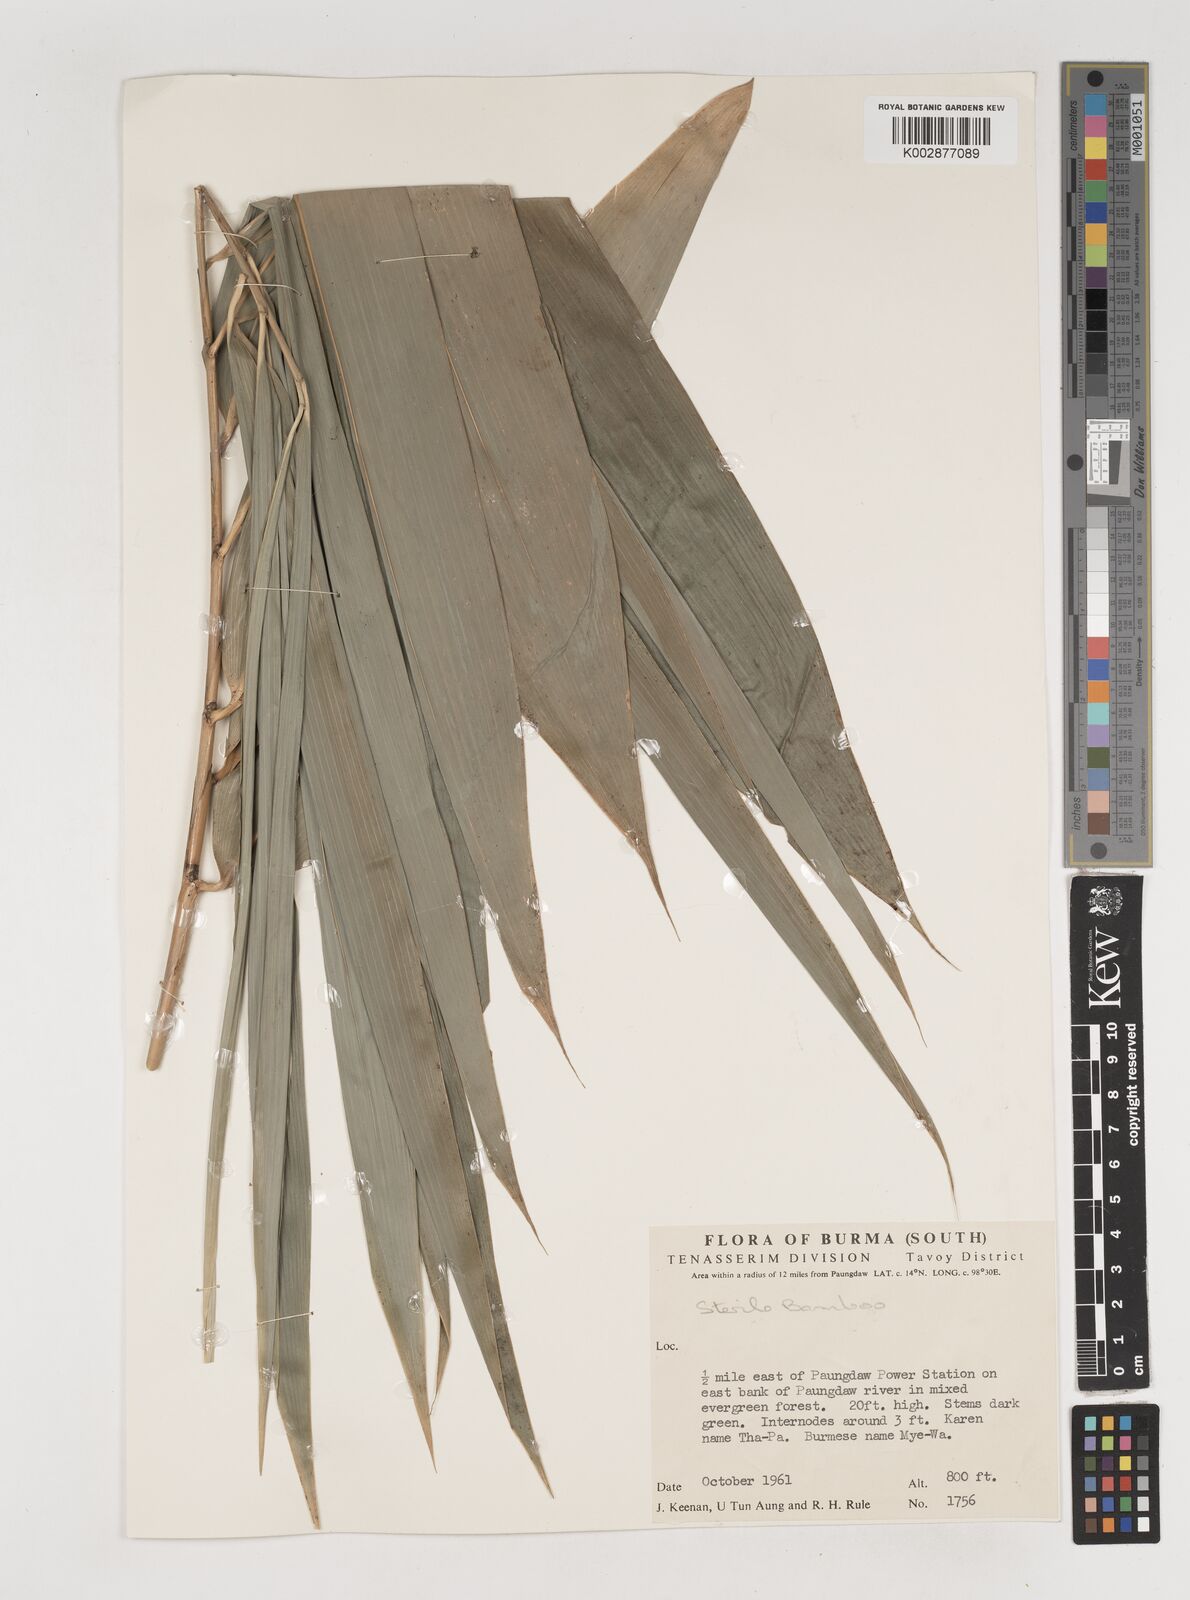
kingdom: Plantae
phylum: Tracheophyta
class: Liliopsida
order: Poales
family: Poaceae
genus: Bambusa
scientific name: Bambusa
